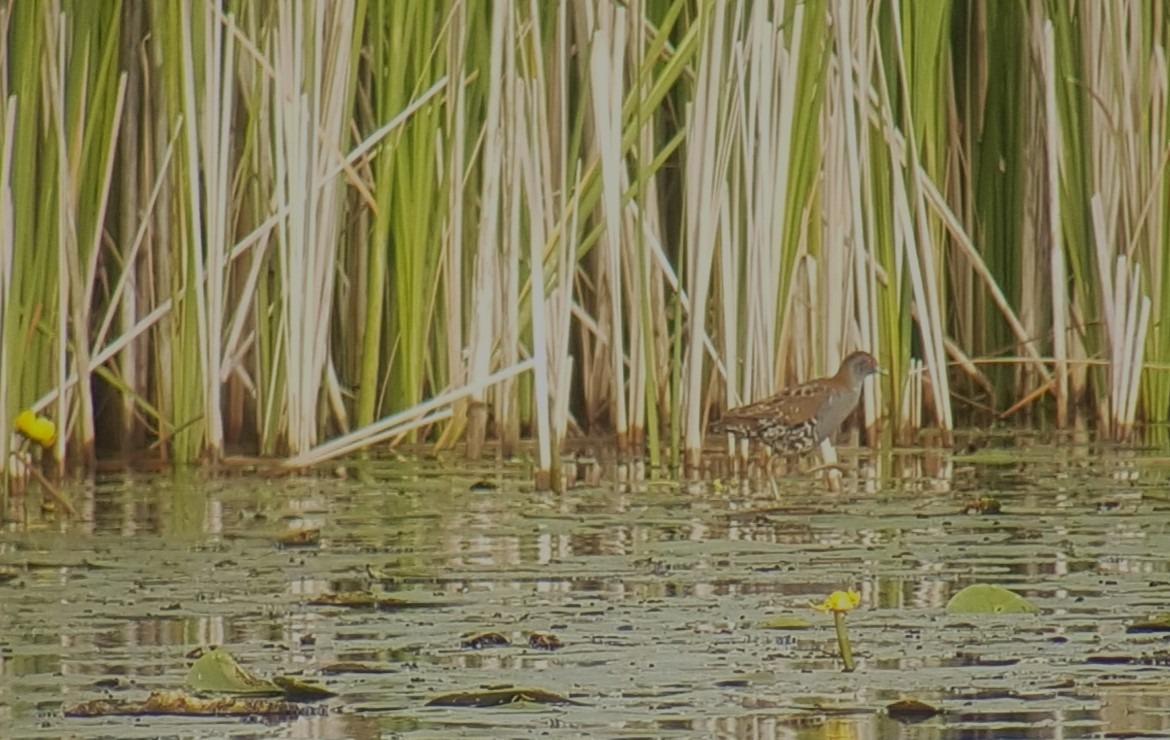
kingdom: Animalia
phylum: Chordata
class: Aves
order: Gruiformes
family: Rallidae
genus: Porzana
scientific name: Porzana pusilla
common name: Dværgrørvagtel
